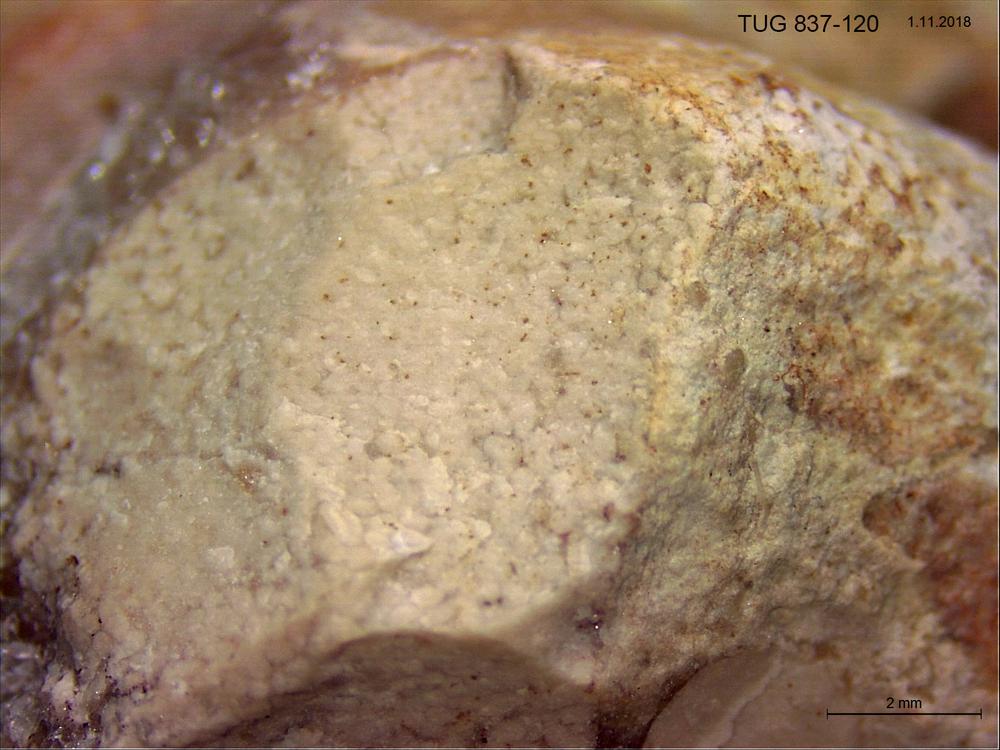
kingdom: Animalia
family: Coprulidae
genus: Coprulus
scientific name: Coprulus
